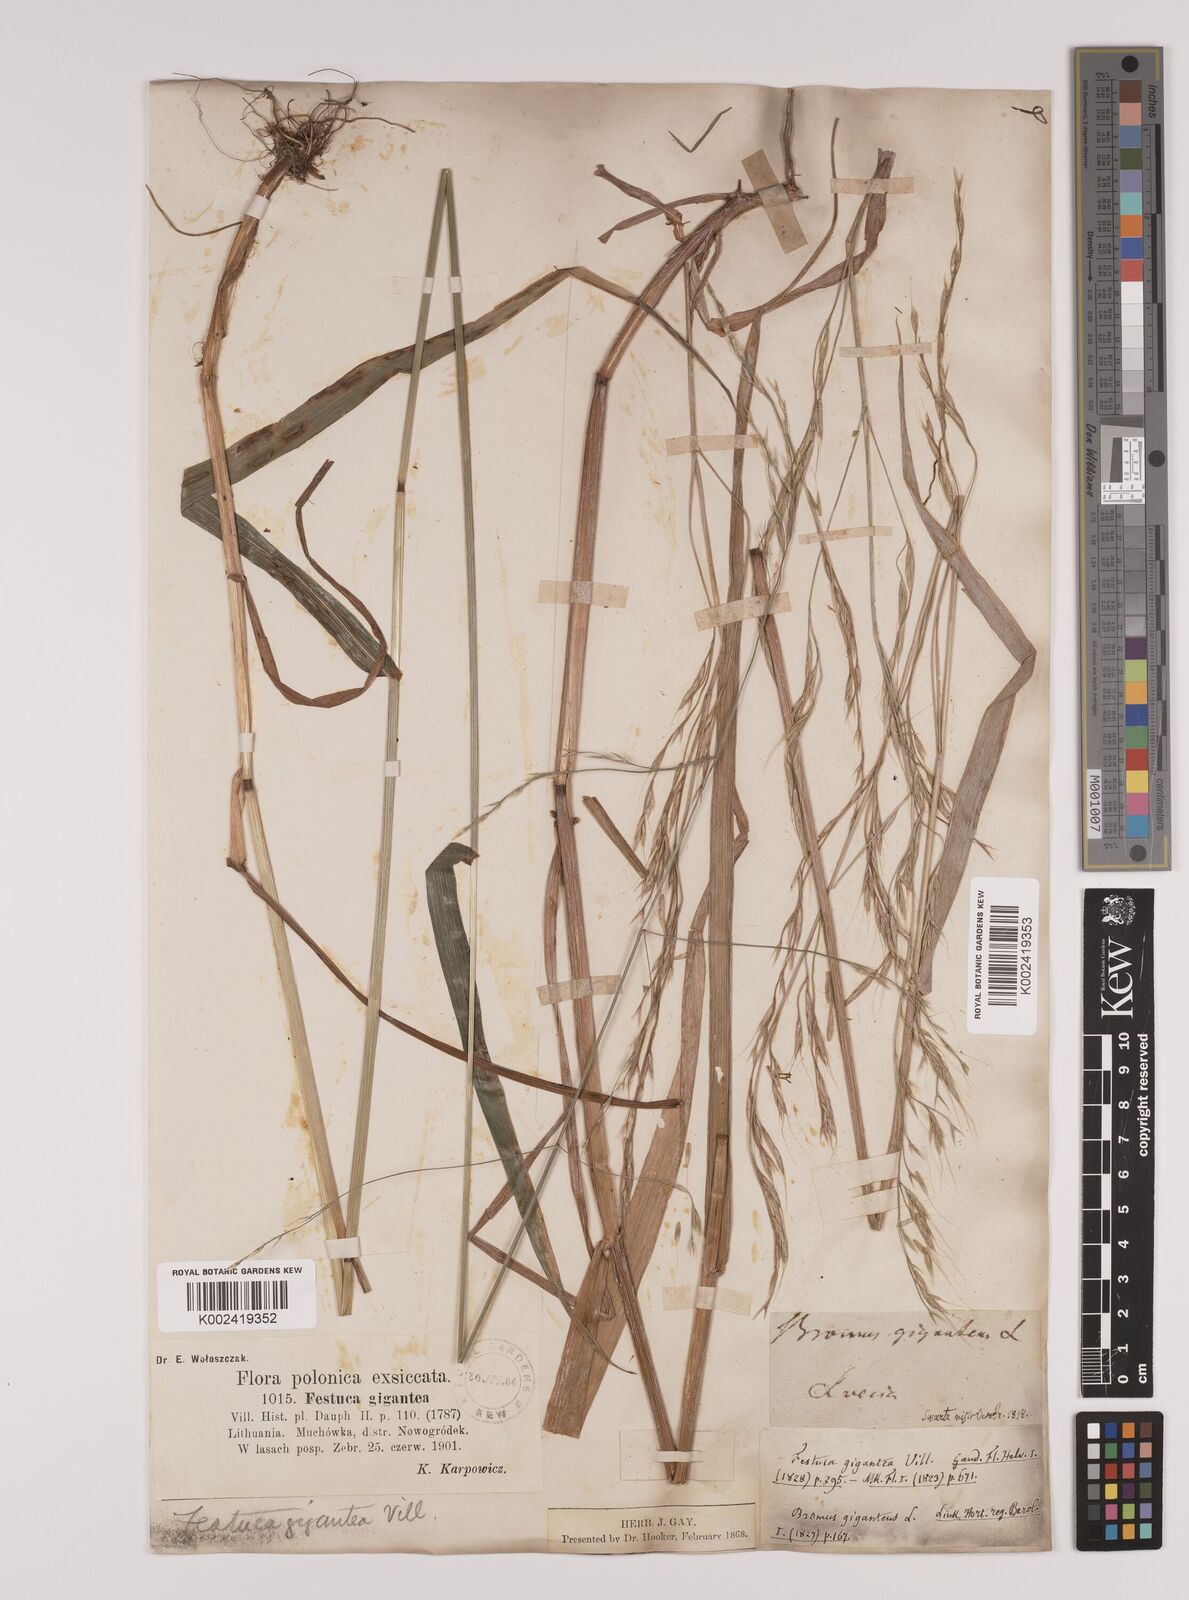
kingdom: Plantae
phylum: Tracheophyta
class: Liliopsida
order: Poales
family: Poaceae
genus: Lolium
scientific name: Lolium giganteum
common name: Giant fescue
